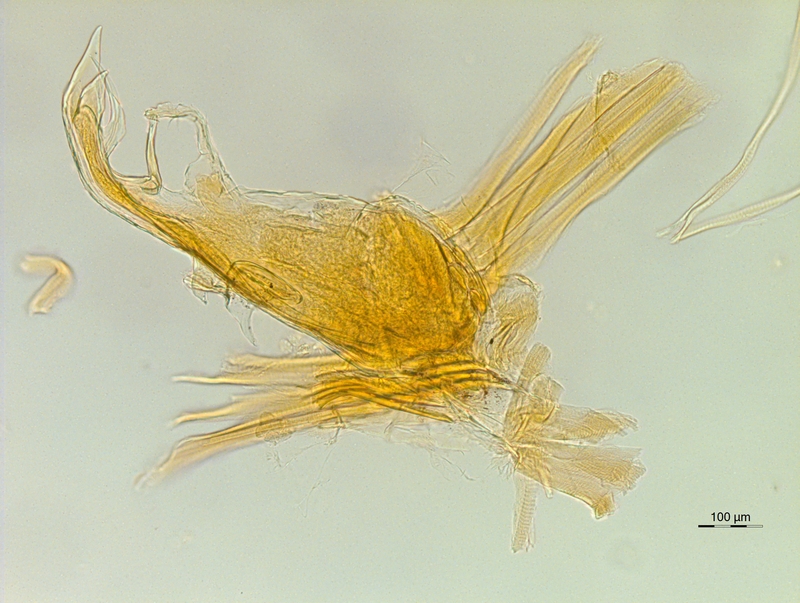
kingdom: Animalia
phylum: Arthropoda
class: Diplopoda
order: Chordeumatida
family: Chordeumatidae
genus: Chordeuma
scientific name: Chordeuma sylvestre
